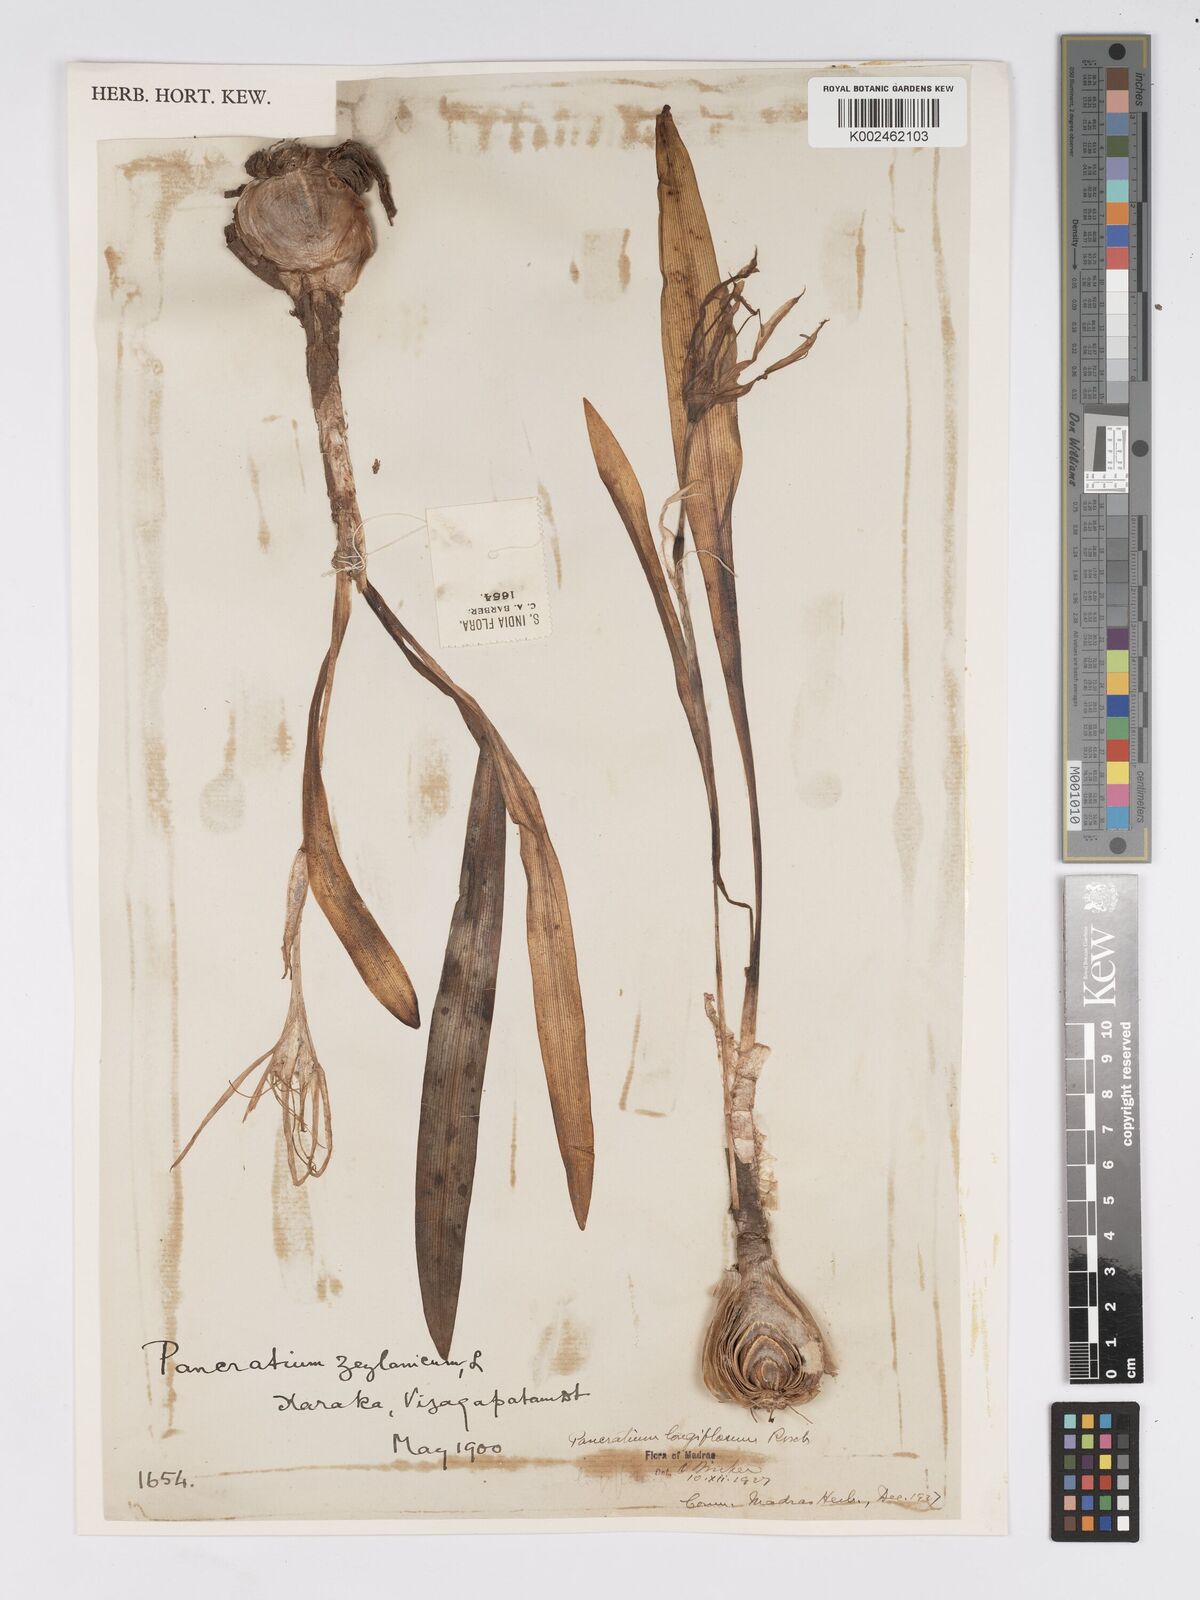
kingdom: Plantae
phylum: Tracheophyta
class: Liliopsida
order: Asparagales
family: Amaryllidaceae
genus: Pancratium
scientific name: Pancratium zeylanicum
